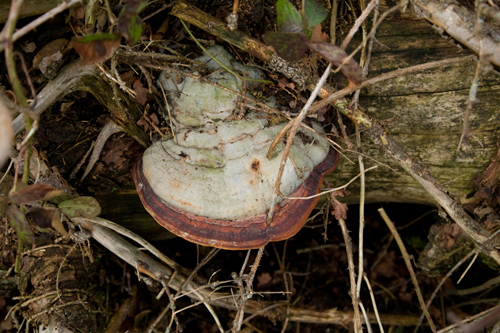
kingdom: Fungi
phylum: Basidiomycota
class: Agaricomycetes
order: Polyporales
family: Fomitopsidaceae
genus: Fomitopsis
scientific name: Fomitopsis pinicola
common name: randbæltet hovporesvamp
